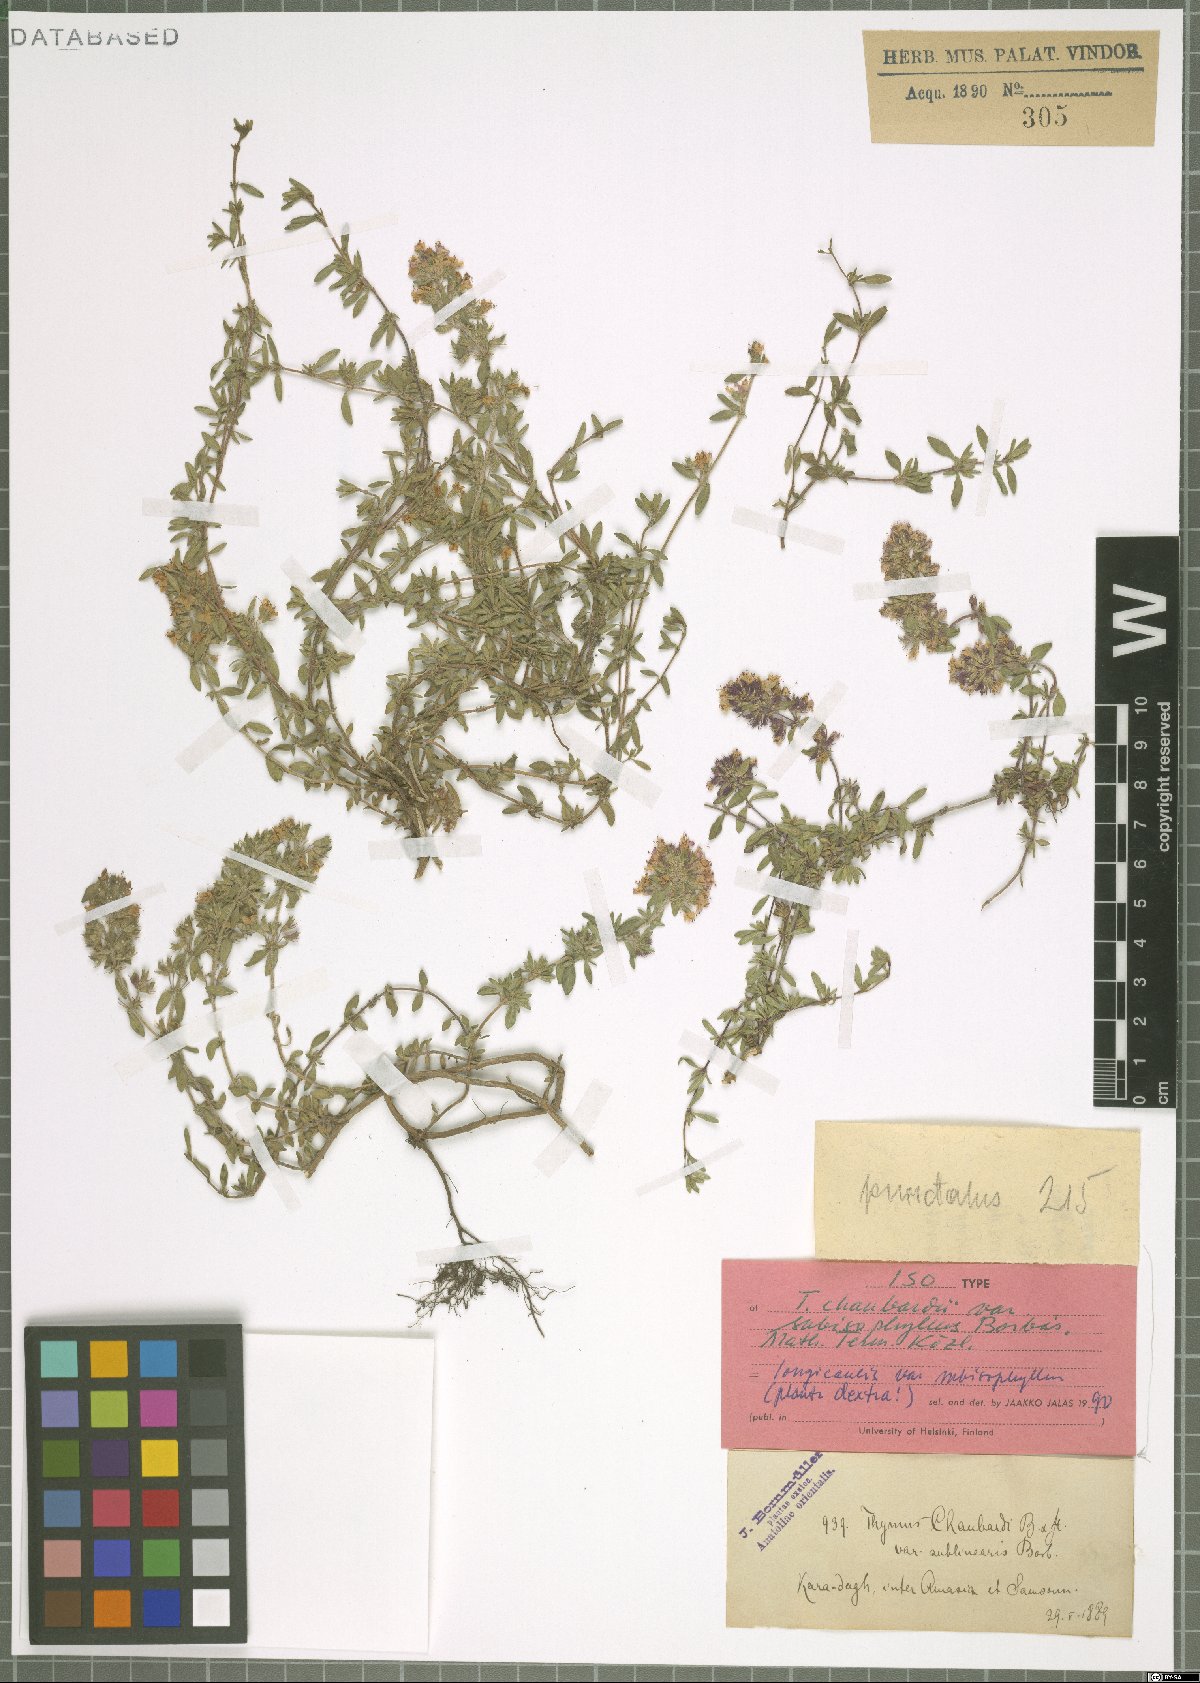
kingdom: Plantae
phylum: Tracheophyta
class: Magnoliopsida
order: Lamiales
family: Lamiaceae
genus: Thymus
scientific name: Thymus longicaulis
